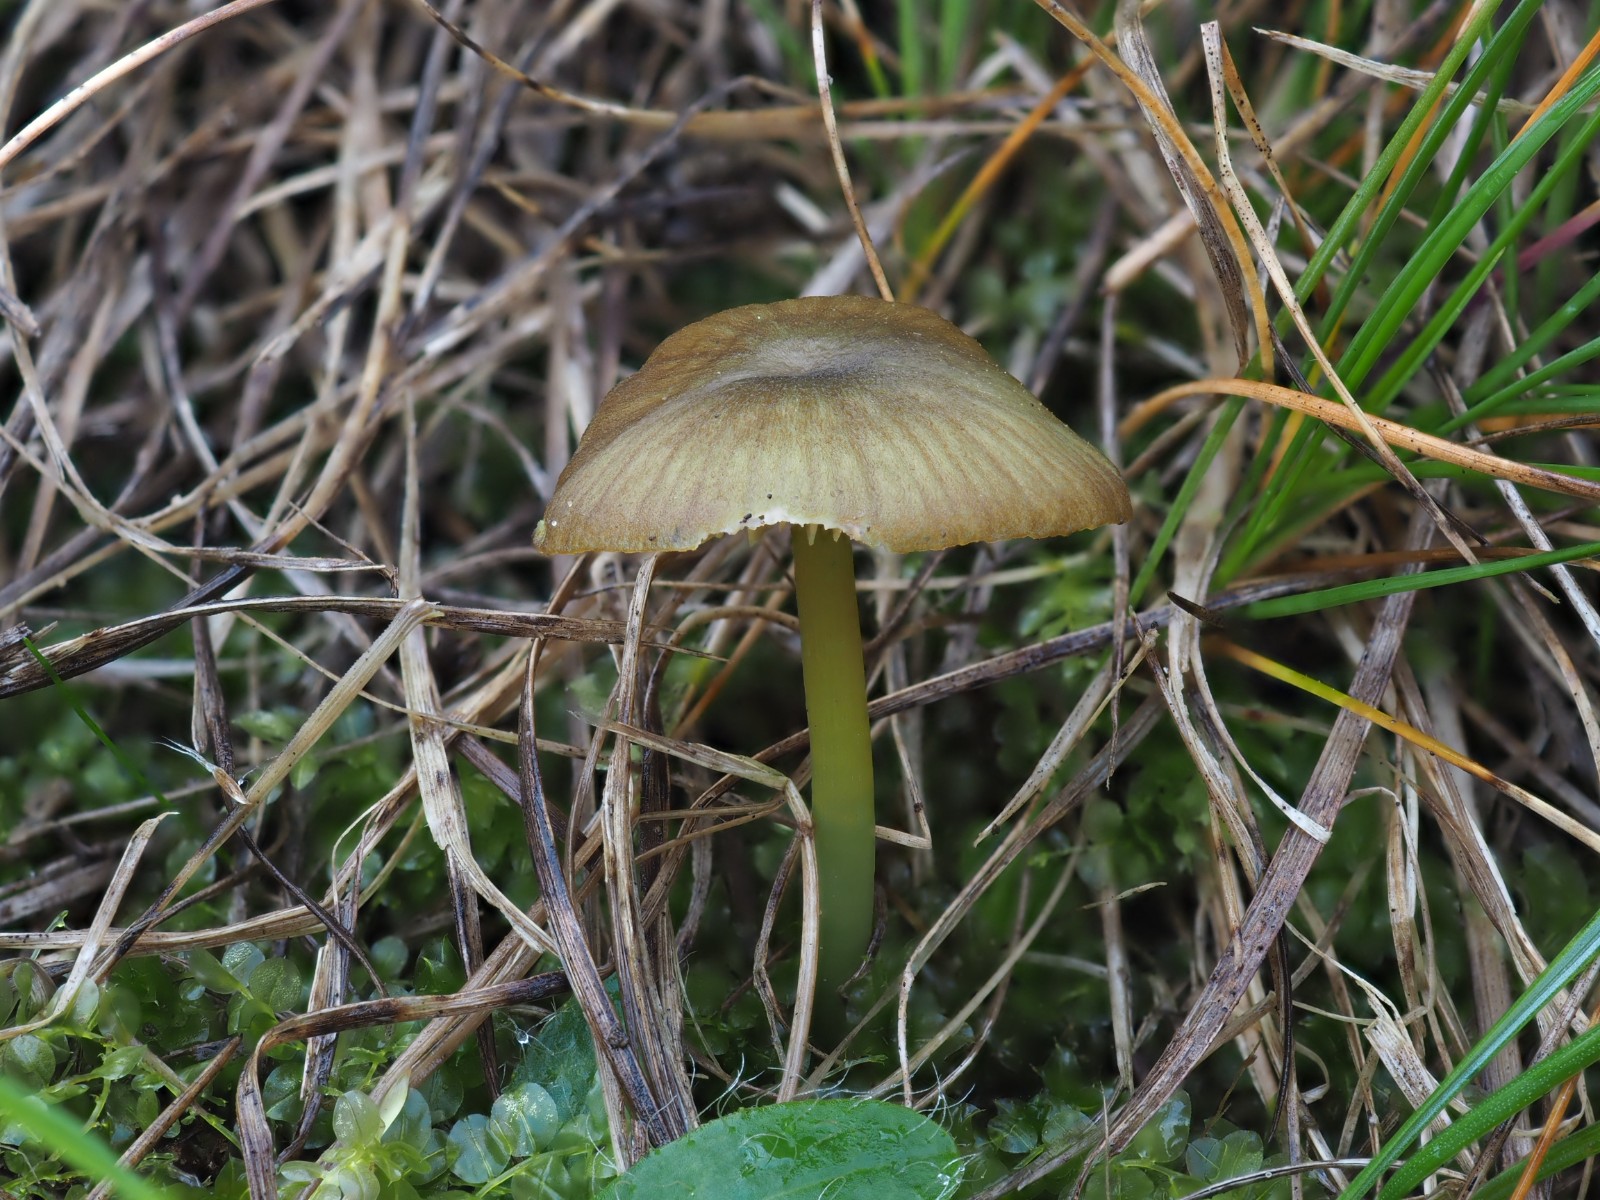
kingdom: Fungi
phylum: Basidiomycota
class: Agaricomycetes
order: Agaricales
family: Entolomataceae
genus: Entoloma
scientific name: Entoloma incanum
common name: grøngul rødblad
